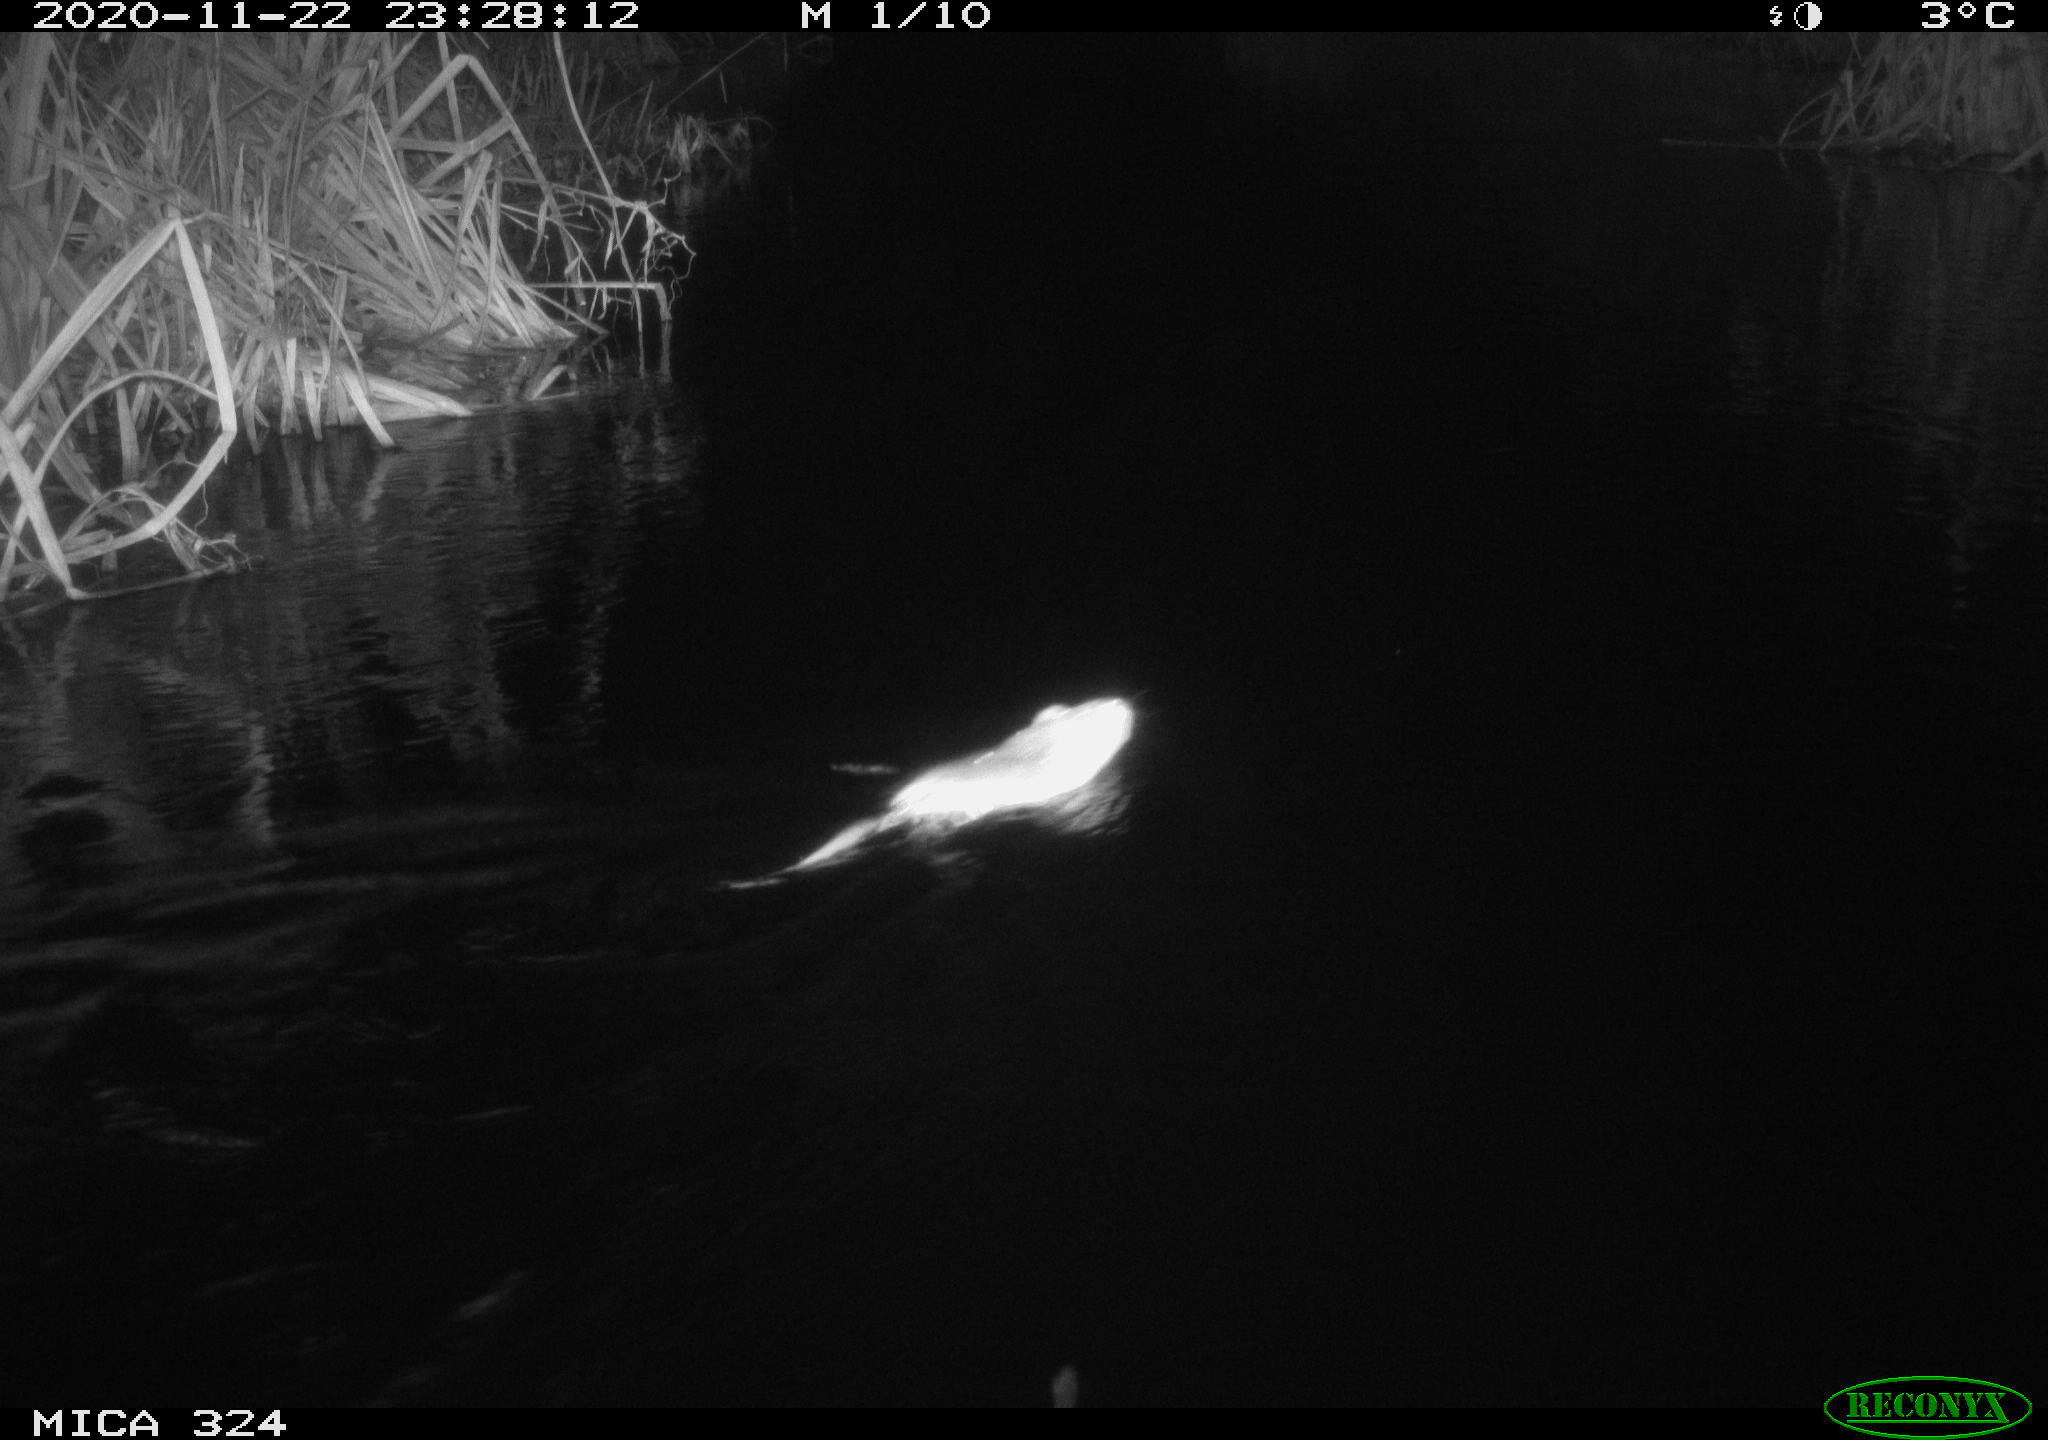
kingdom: Animalia
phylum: Chordata
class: Mammalia
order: Rodentia
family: Cricetidae
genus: Ondatra
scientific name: Ondatra zibethicus
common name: Muskrat
